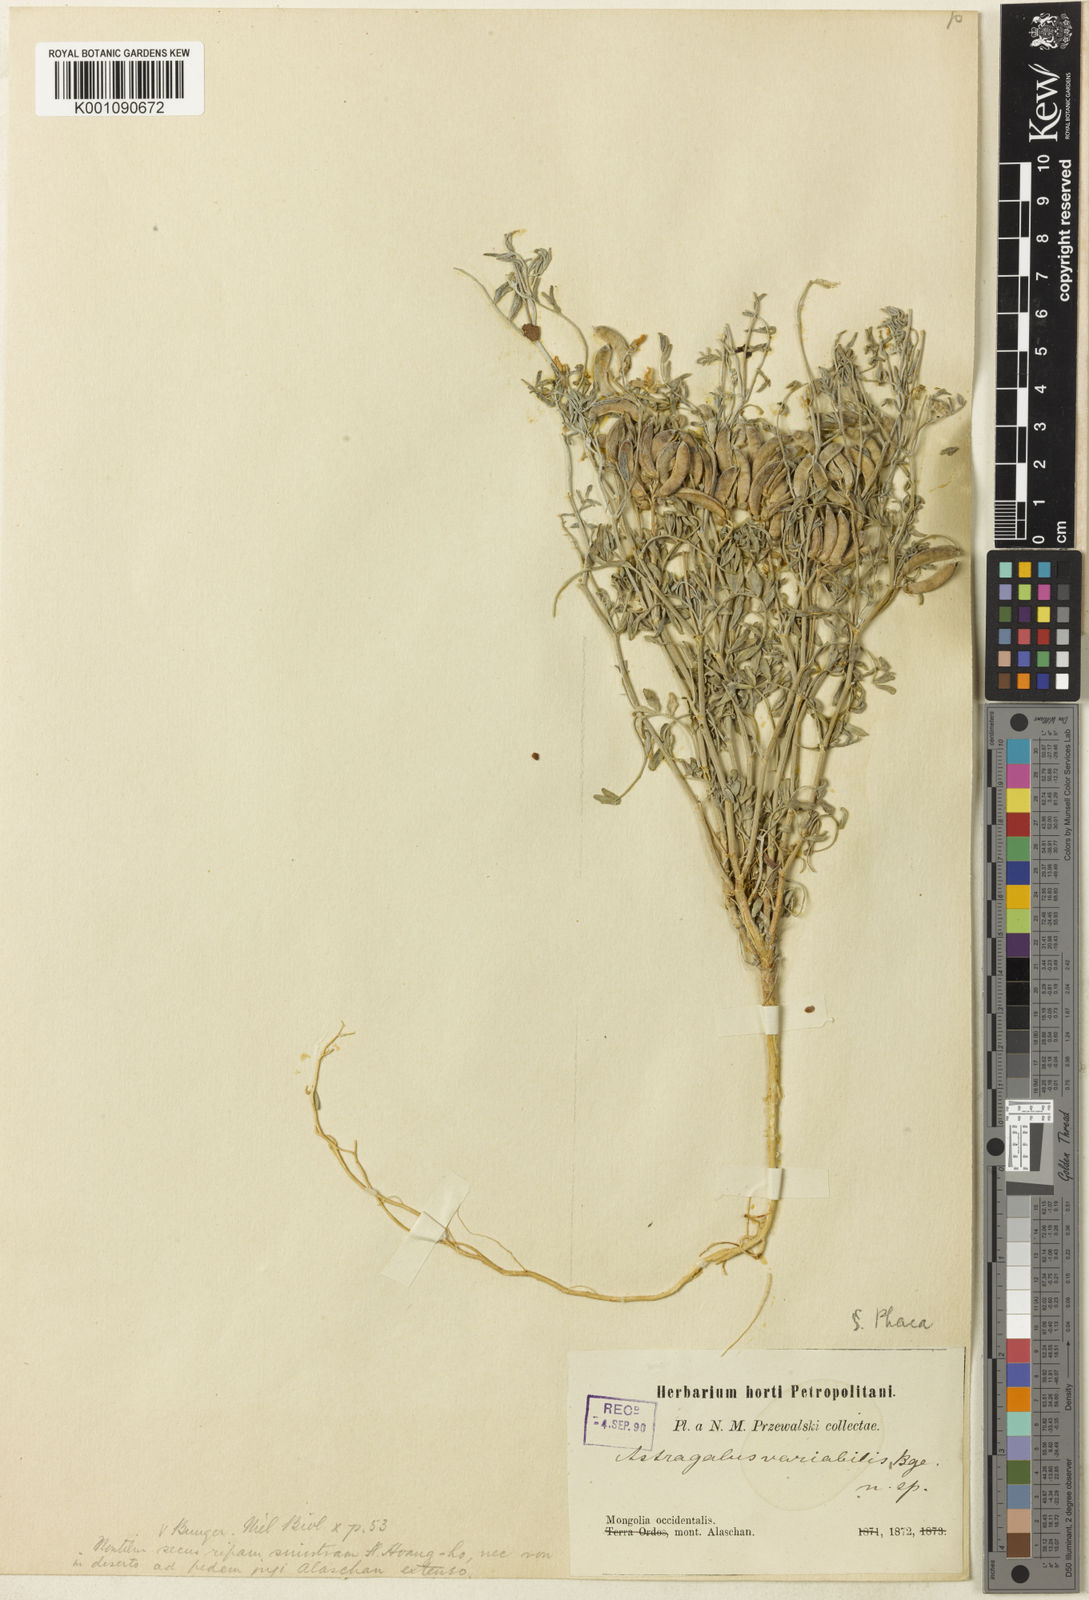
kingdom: Plantae
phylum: Tracheophyta
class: Magnoliopsida
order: Fabales
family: Fabaceae
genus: Astragalus
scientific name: Astragalus
